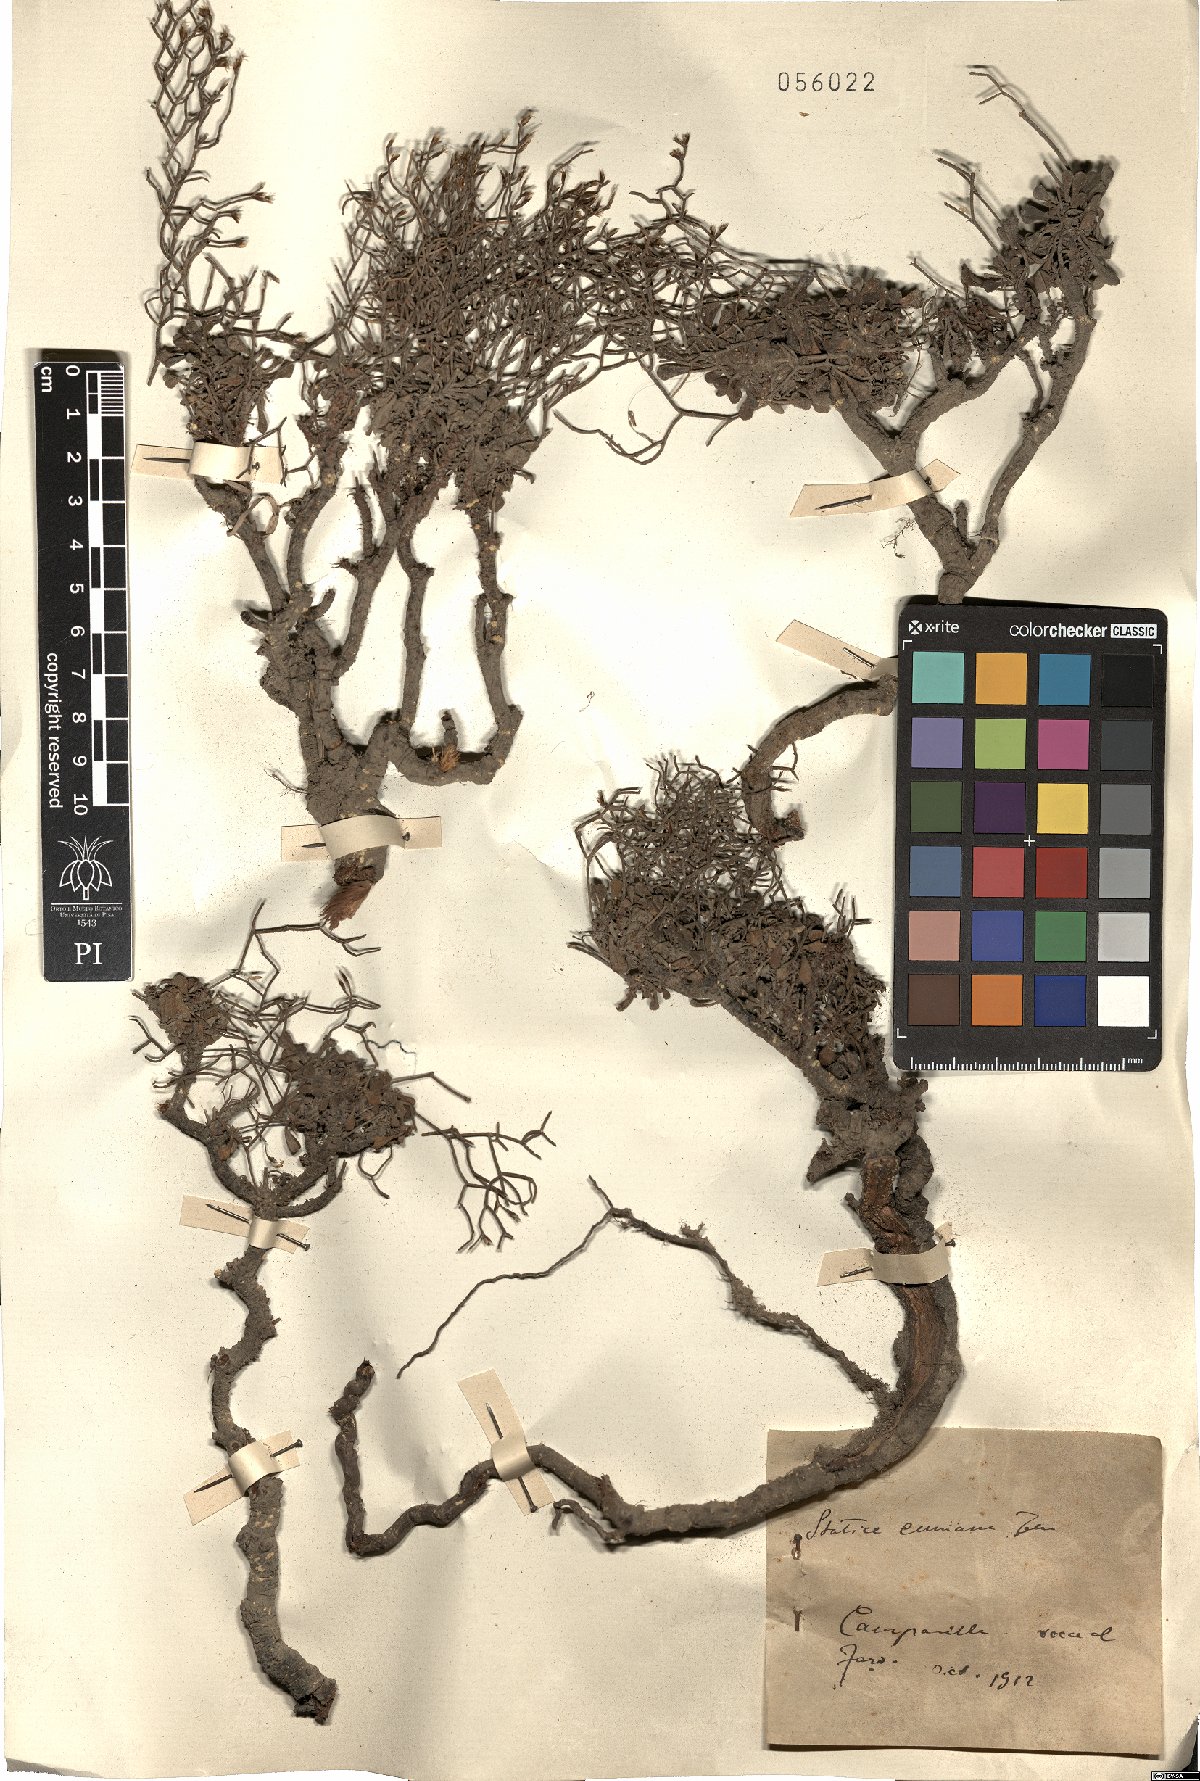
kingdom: Plantae
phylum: Tracheophyta
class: Magnoliopsida
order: Caryophyllales
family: Plumbaginaceae
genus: Limonium
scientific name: Limonium cumanum
